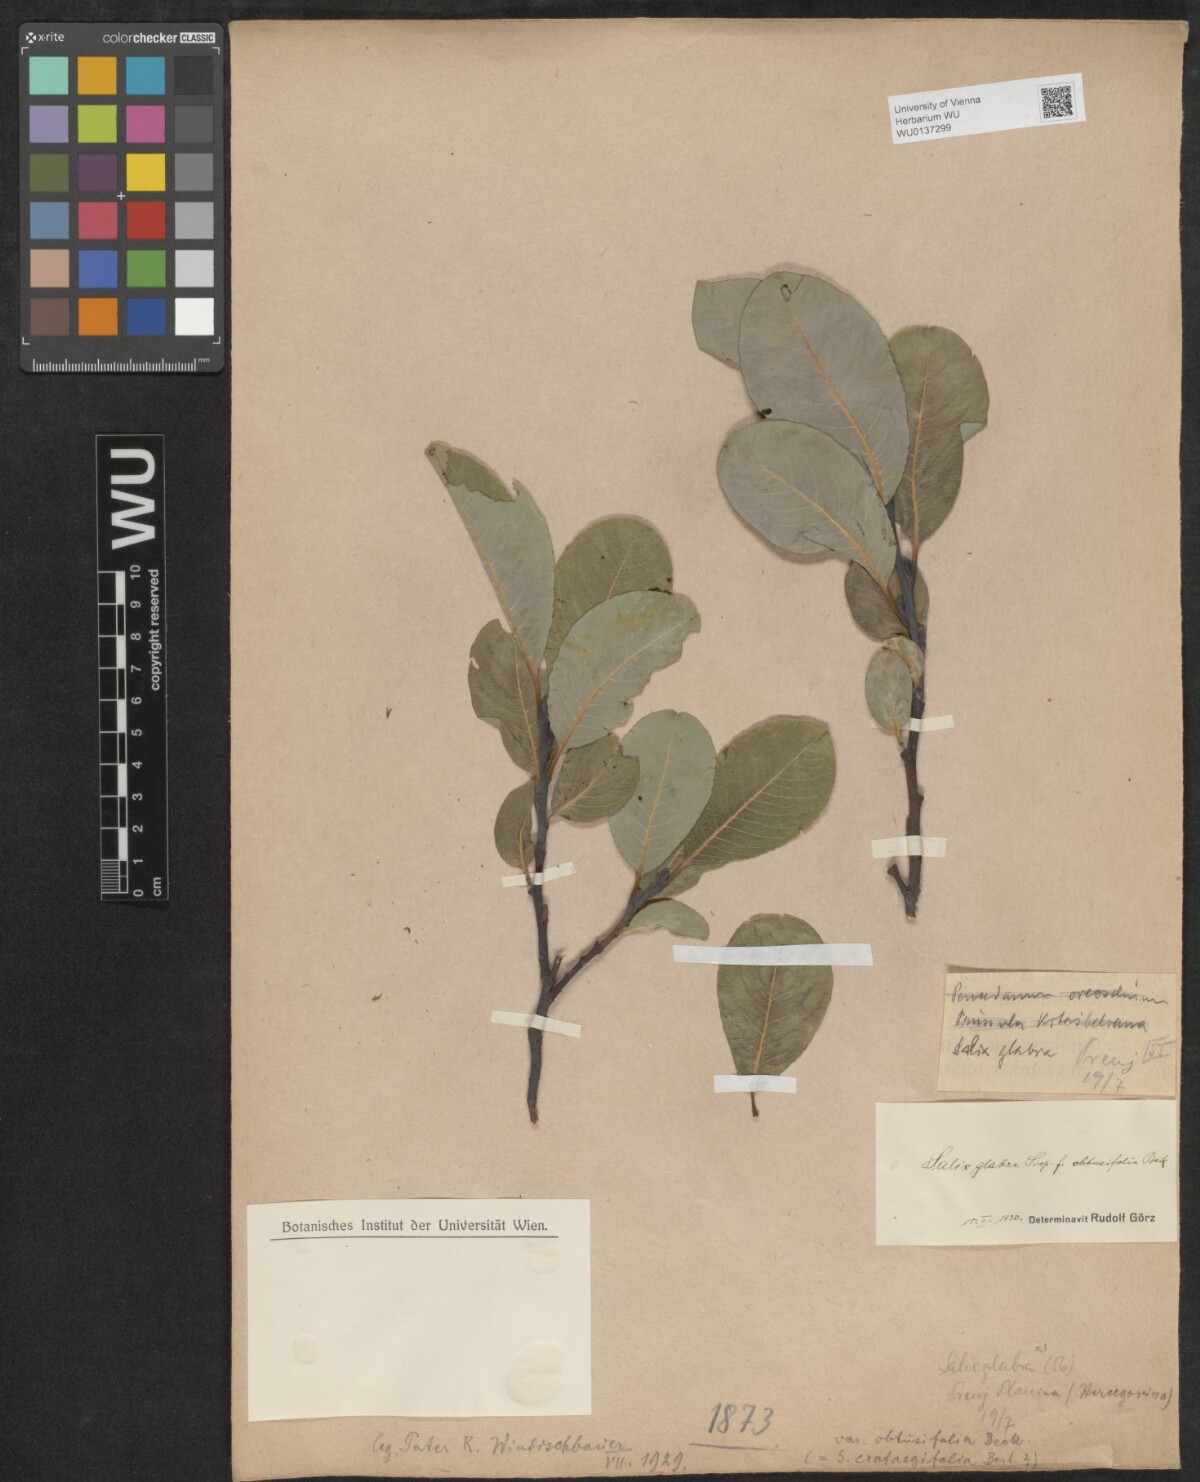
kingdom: Plantae
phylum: Tracheophyta
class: Magnoliopsida
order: Malpighiales
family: Salicaceae
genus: Salix
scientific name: Salix glabra
